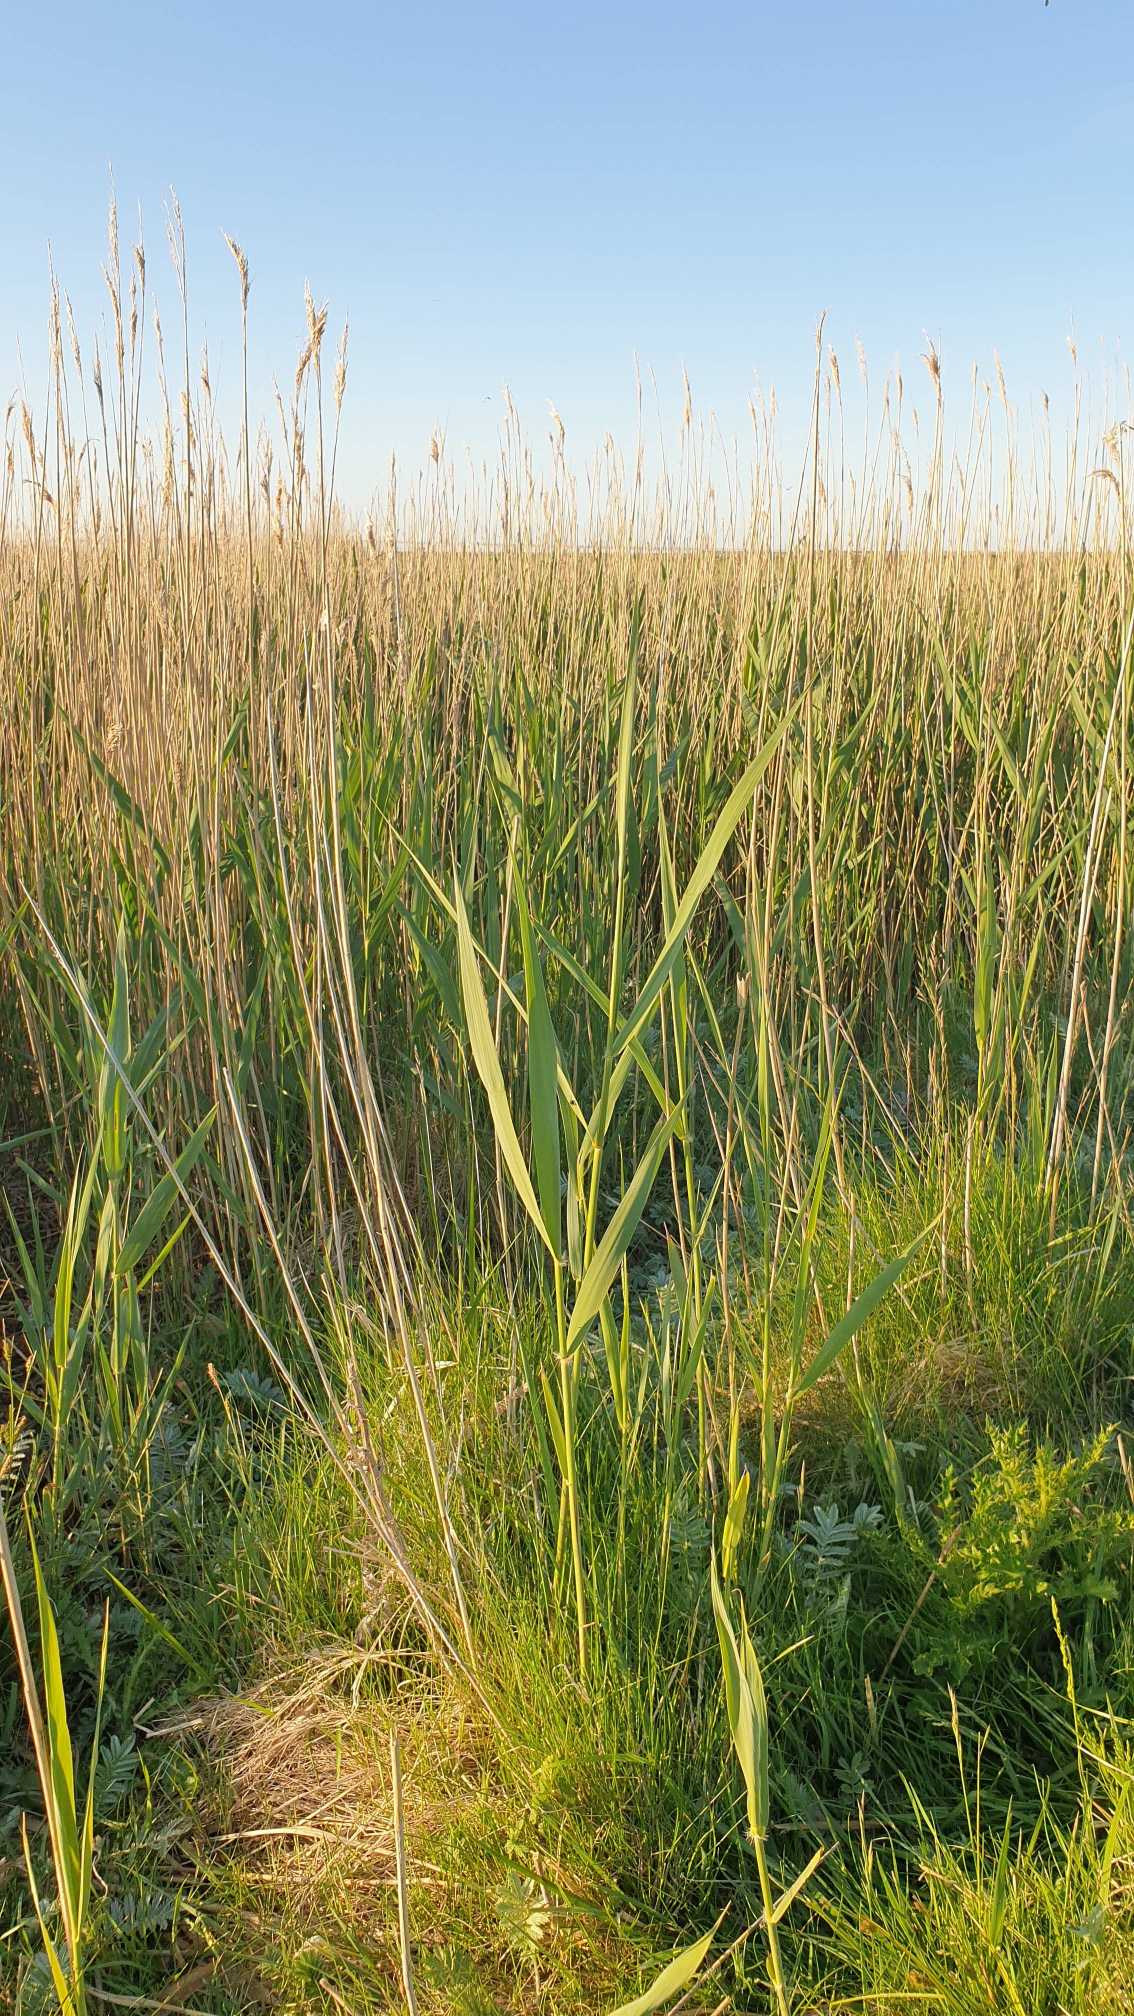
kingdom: Plantae
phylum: Tracheophyta
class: Liliopsida
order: Poales
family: Poaceae
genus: Phragmites
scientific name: Phragmites australis
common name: Tagrør
